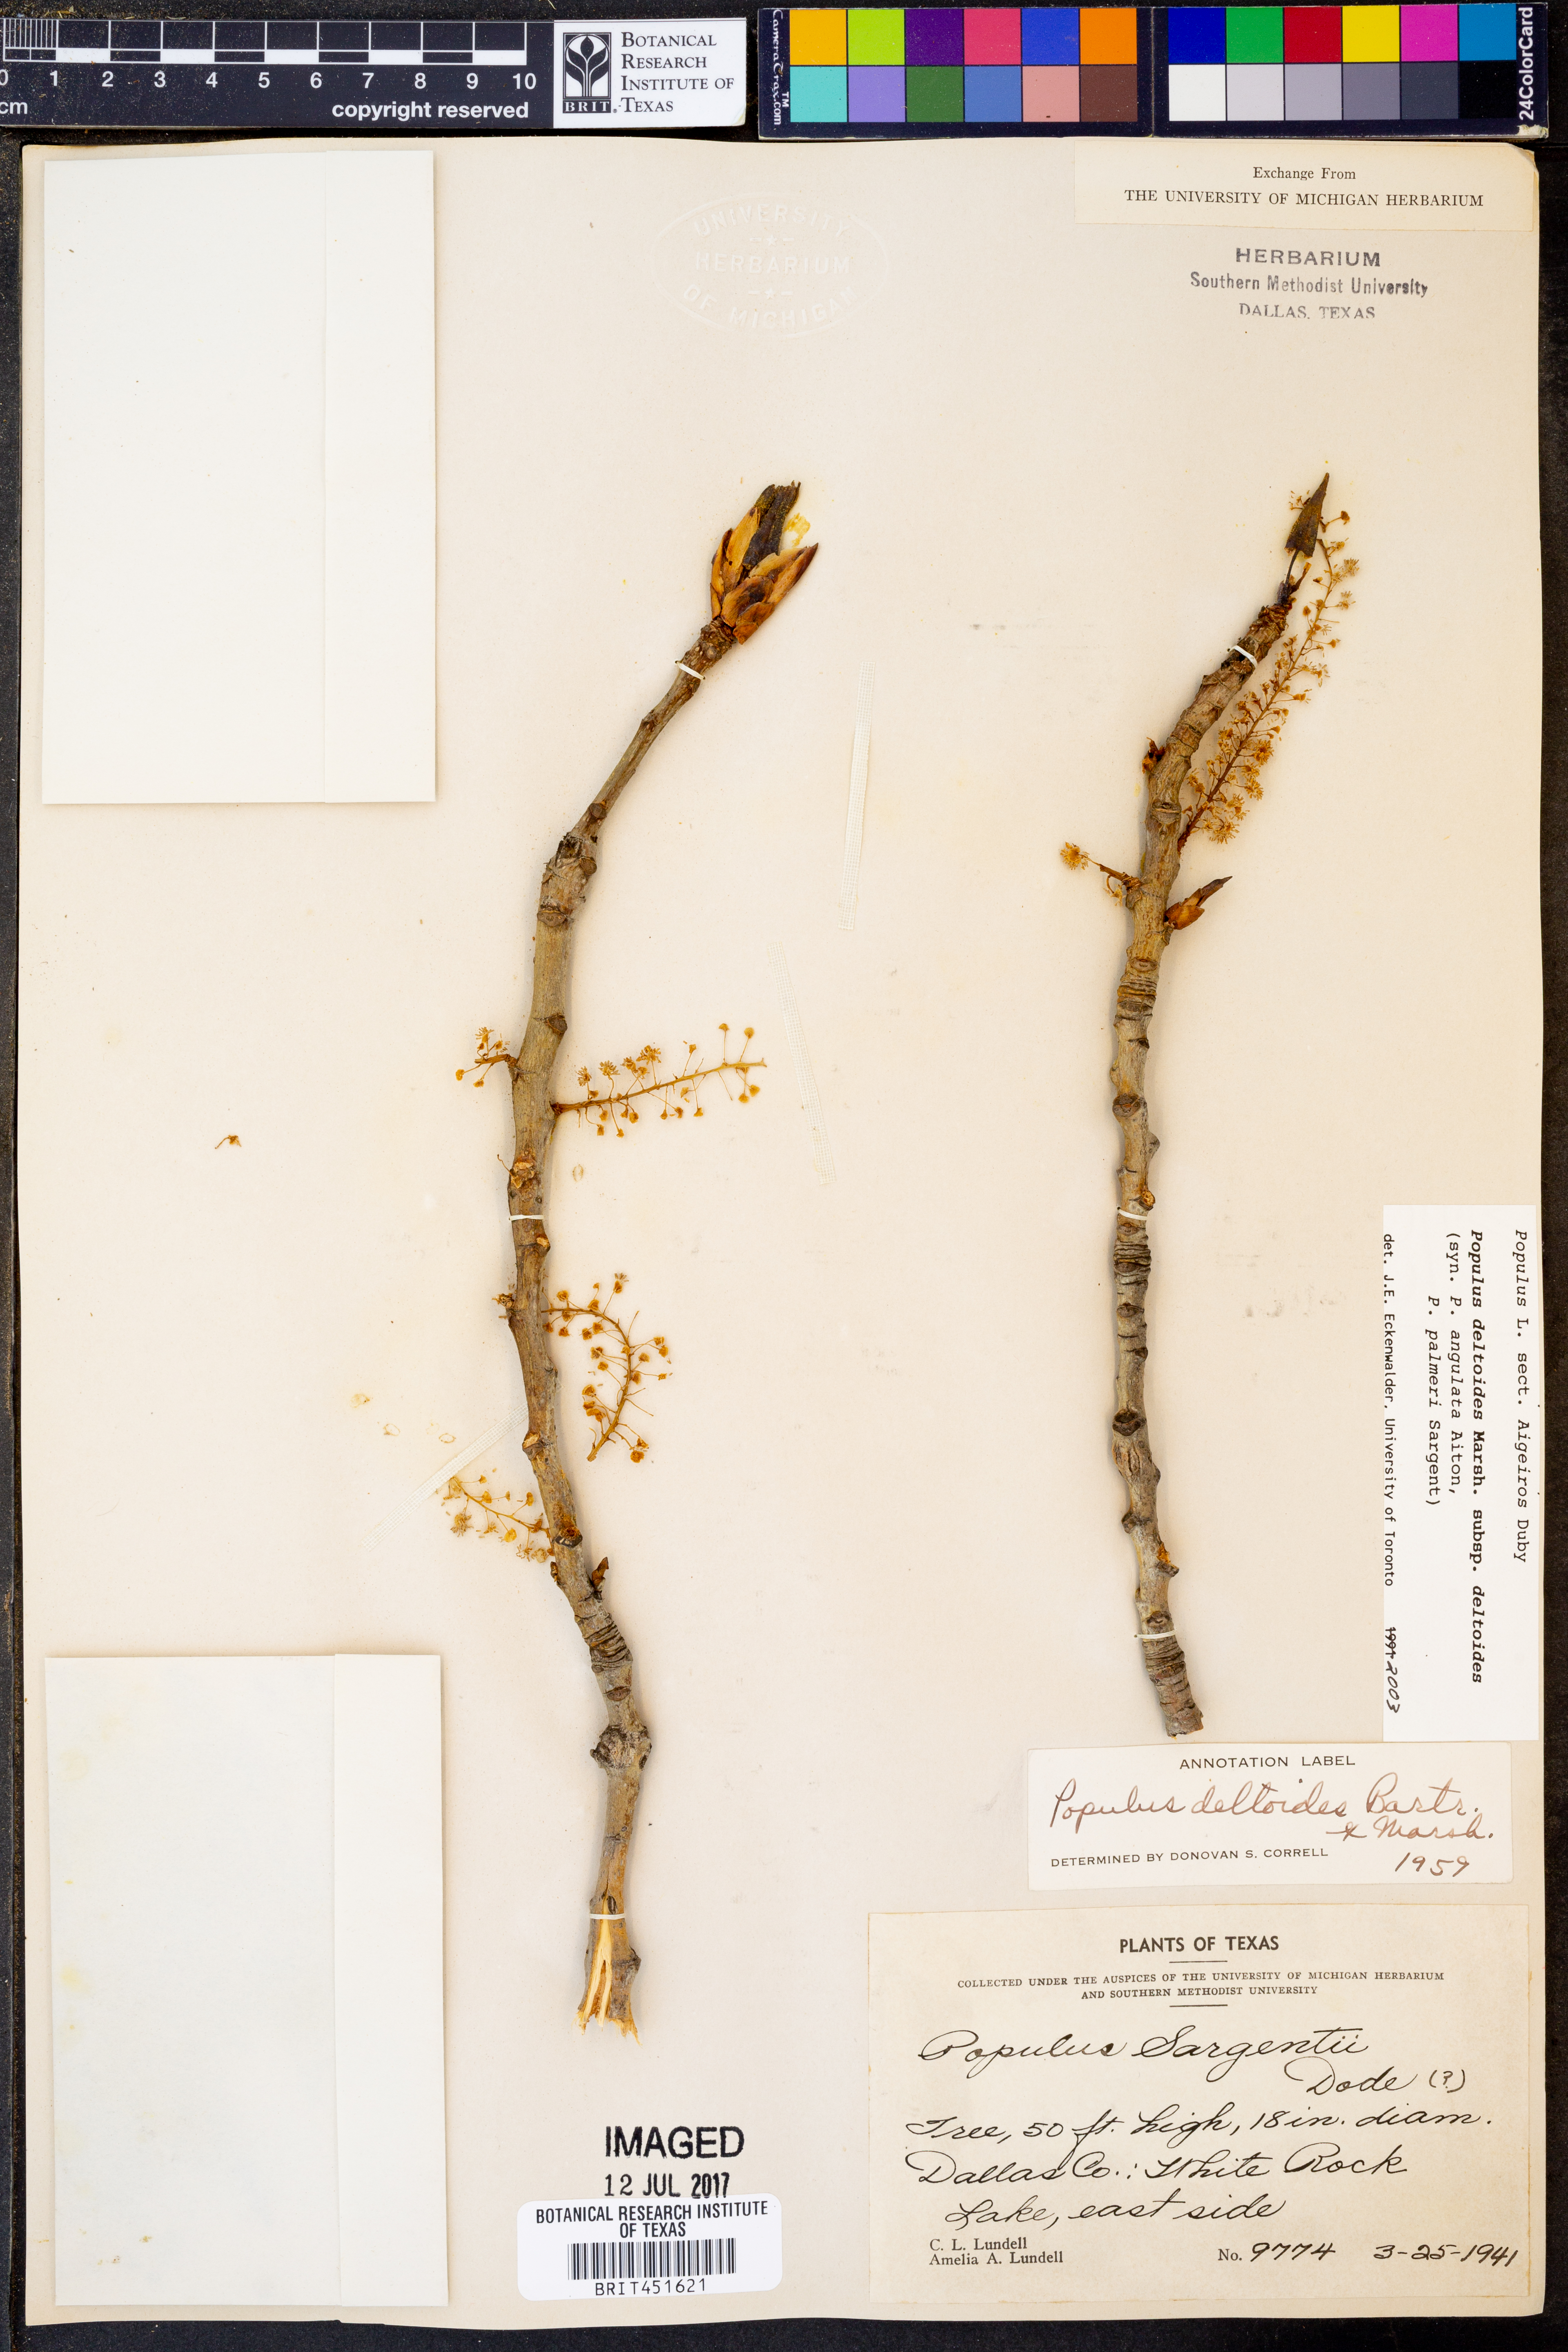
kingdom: Plantae
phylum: Tracheophyta
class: Magnoliopsida
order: Malpighiales
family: Salicaceae
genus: Populus
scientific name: Populus deltoides
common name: Eastern cottonwood
